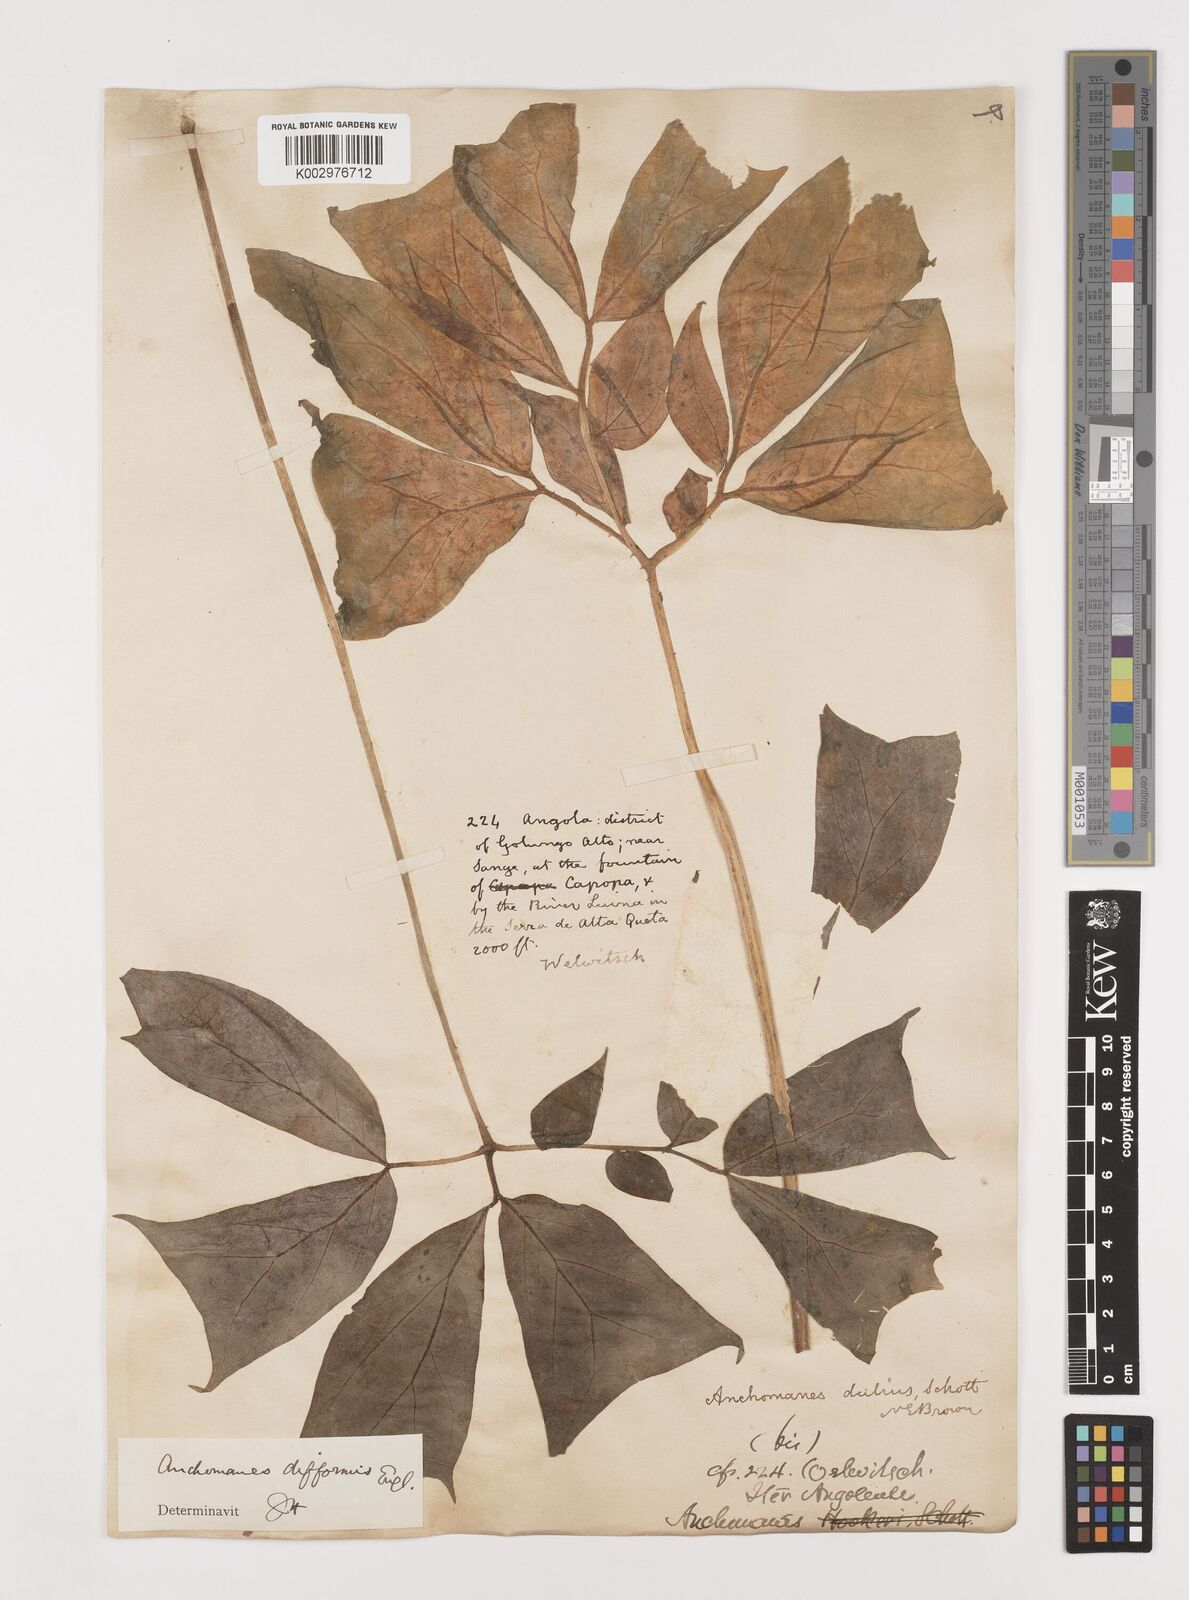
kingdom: Plantae
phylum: Tracheophyta
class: Liliopsida
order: Alismatales
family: Araceae
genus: Anchomanes
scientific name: Anchomanes difformis
